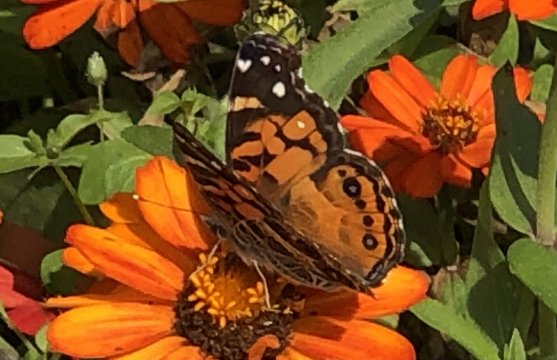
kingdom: Animalia
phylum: Arthropoda
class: Insecta
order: Lepidoptera
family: Nymphalidae
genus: Vanessa
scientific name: Vanessa virginiensis
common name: American Lady
